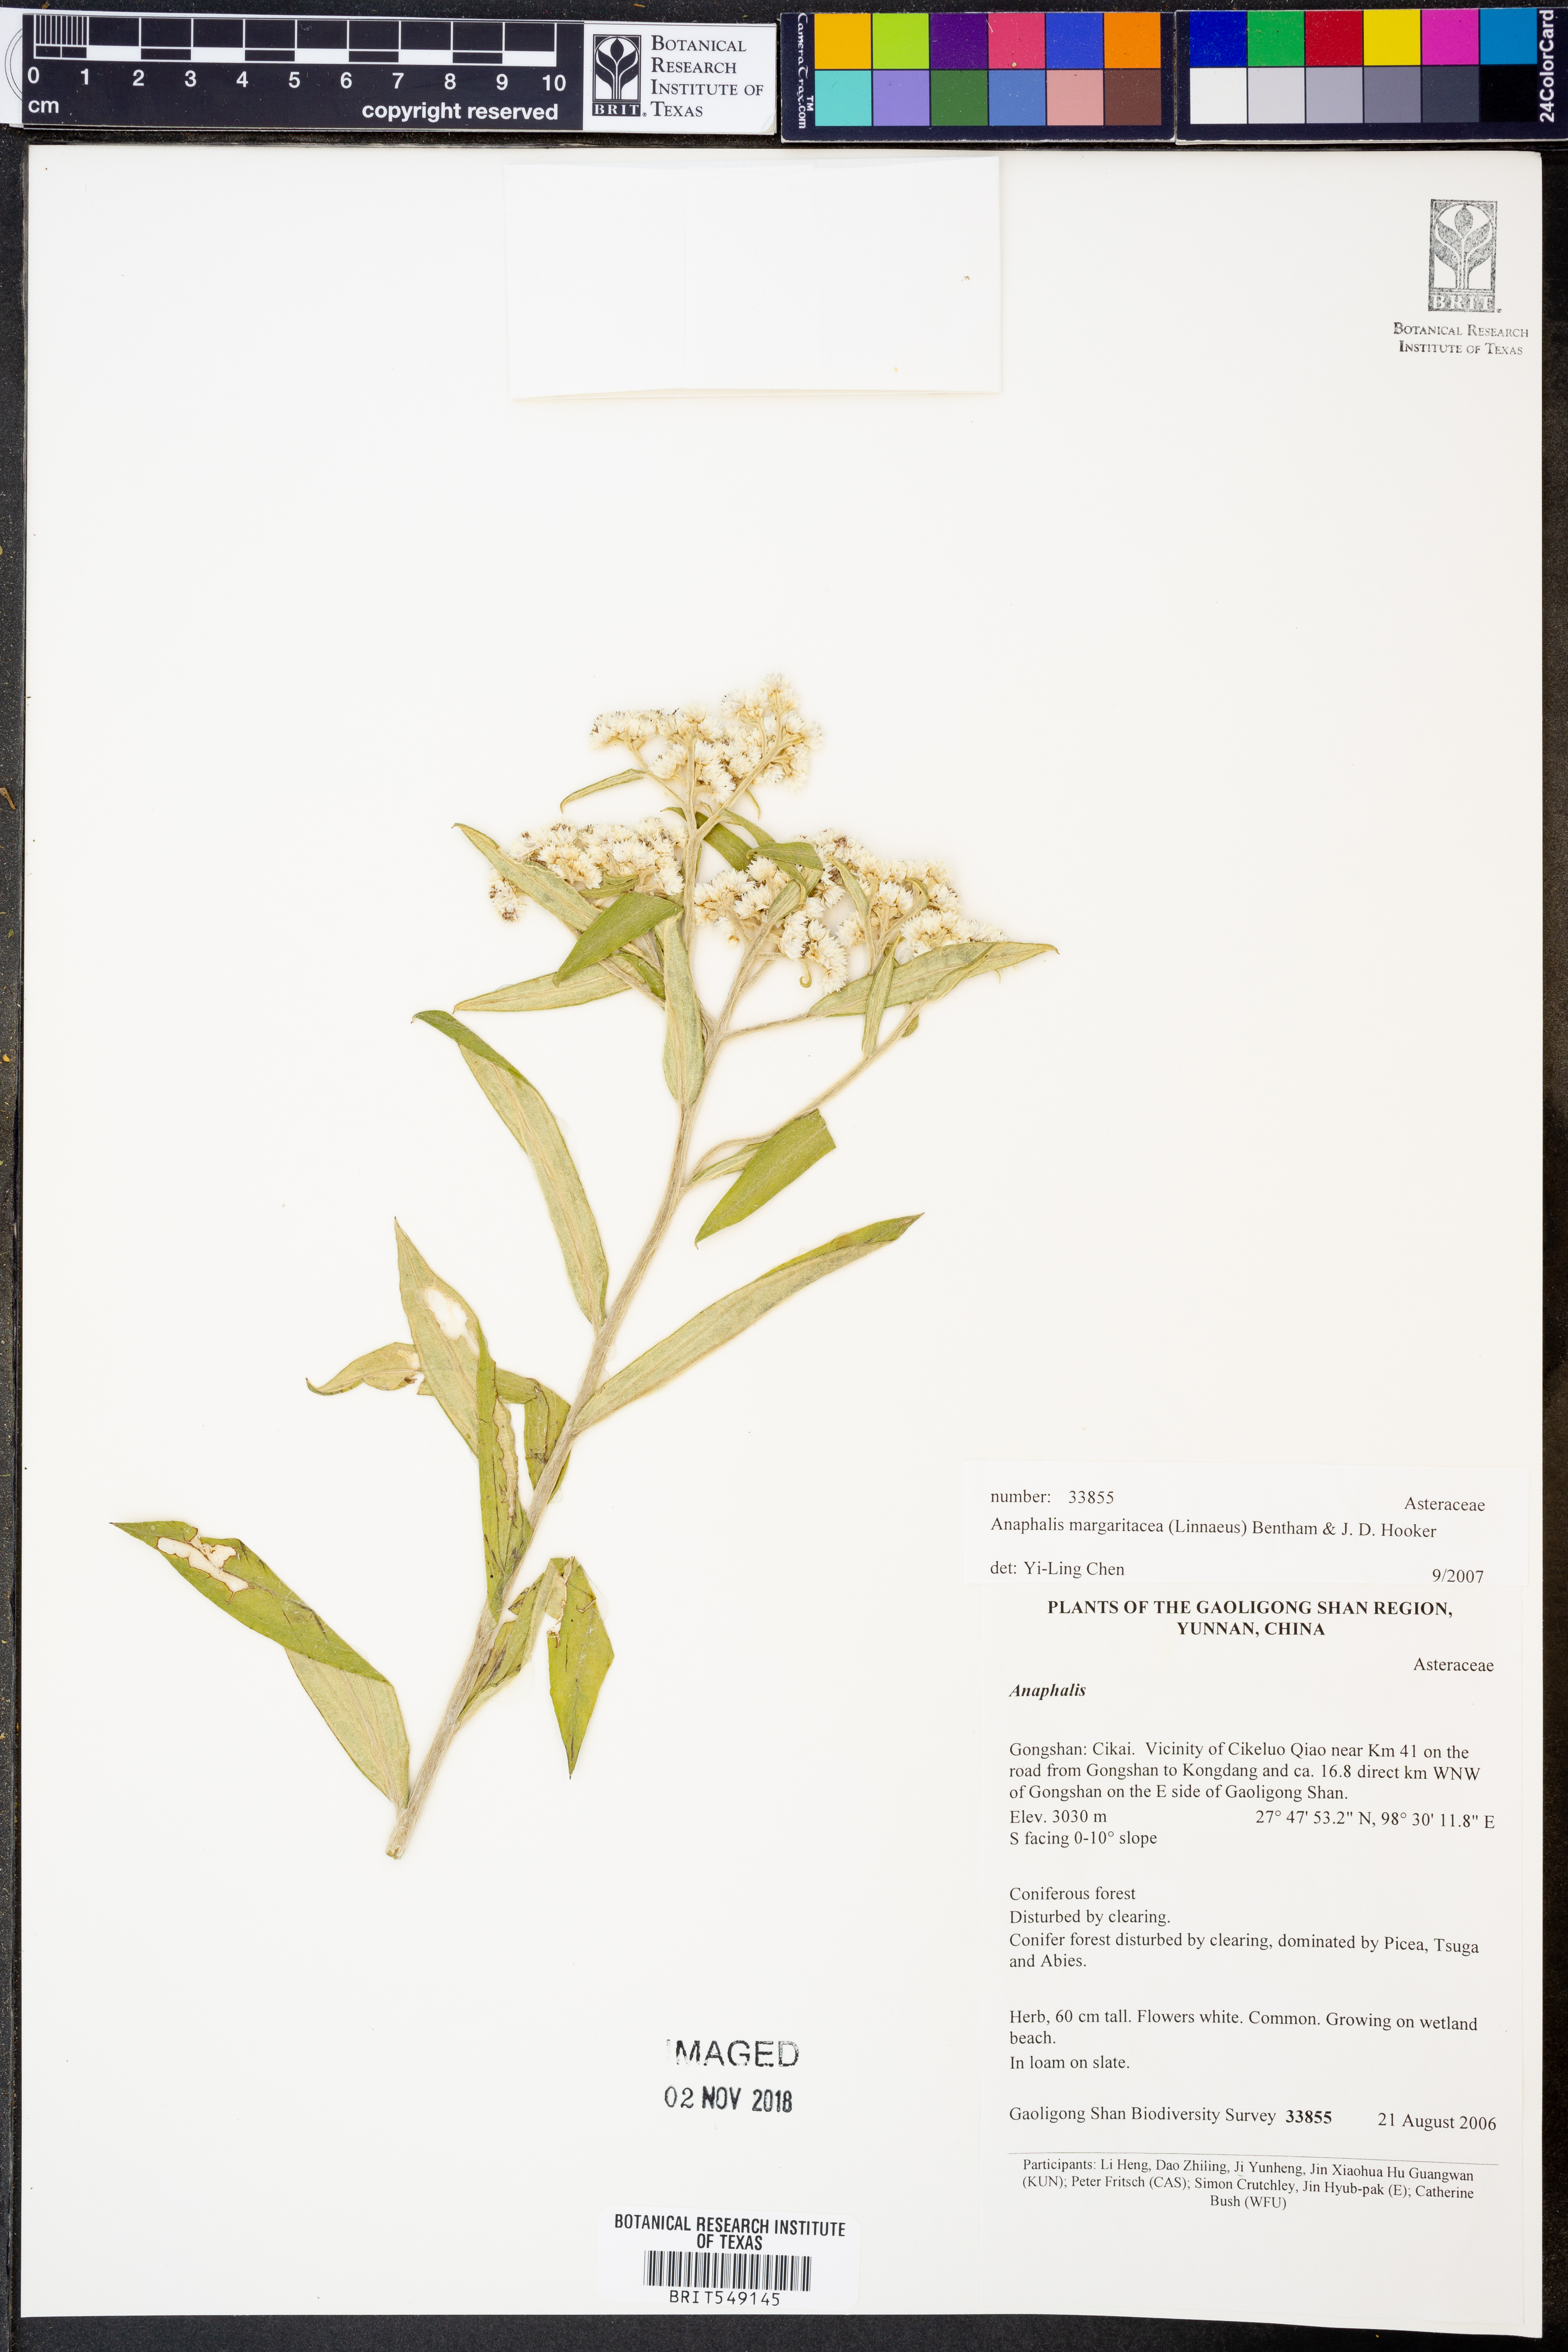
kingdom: Plantae
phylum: Tracheophyta
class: Magnoliopsida
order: Asterales
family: Asteraceae
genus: Anaphalis
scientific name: Anaphalis margaritacea
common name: Pearly everlasting
